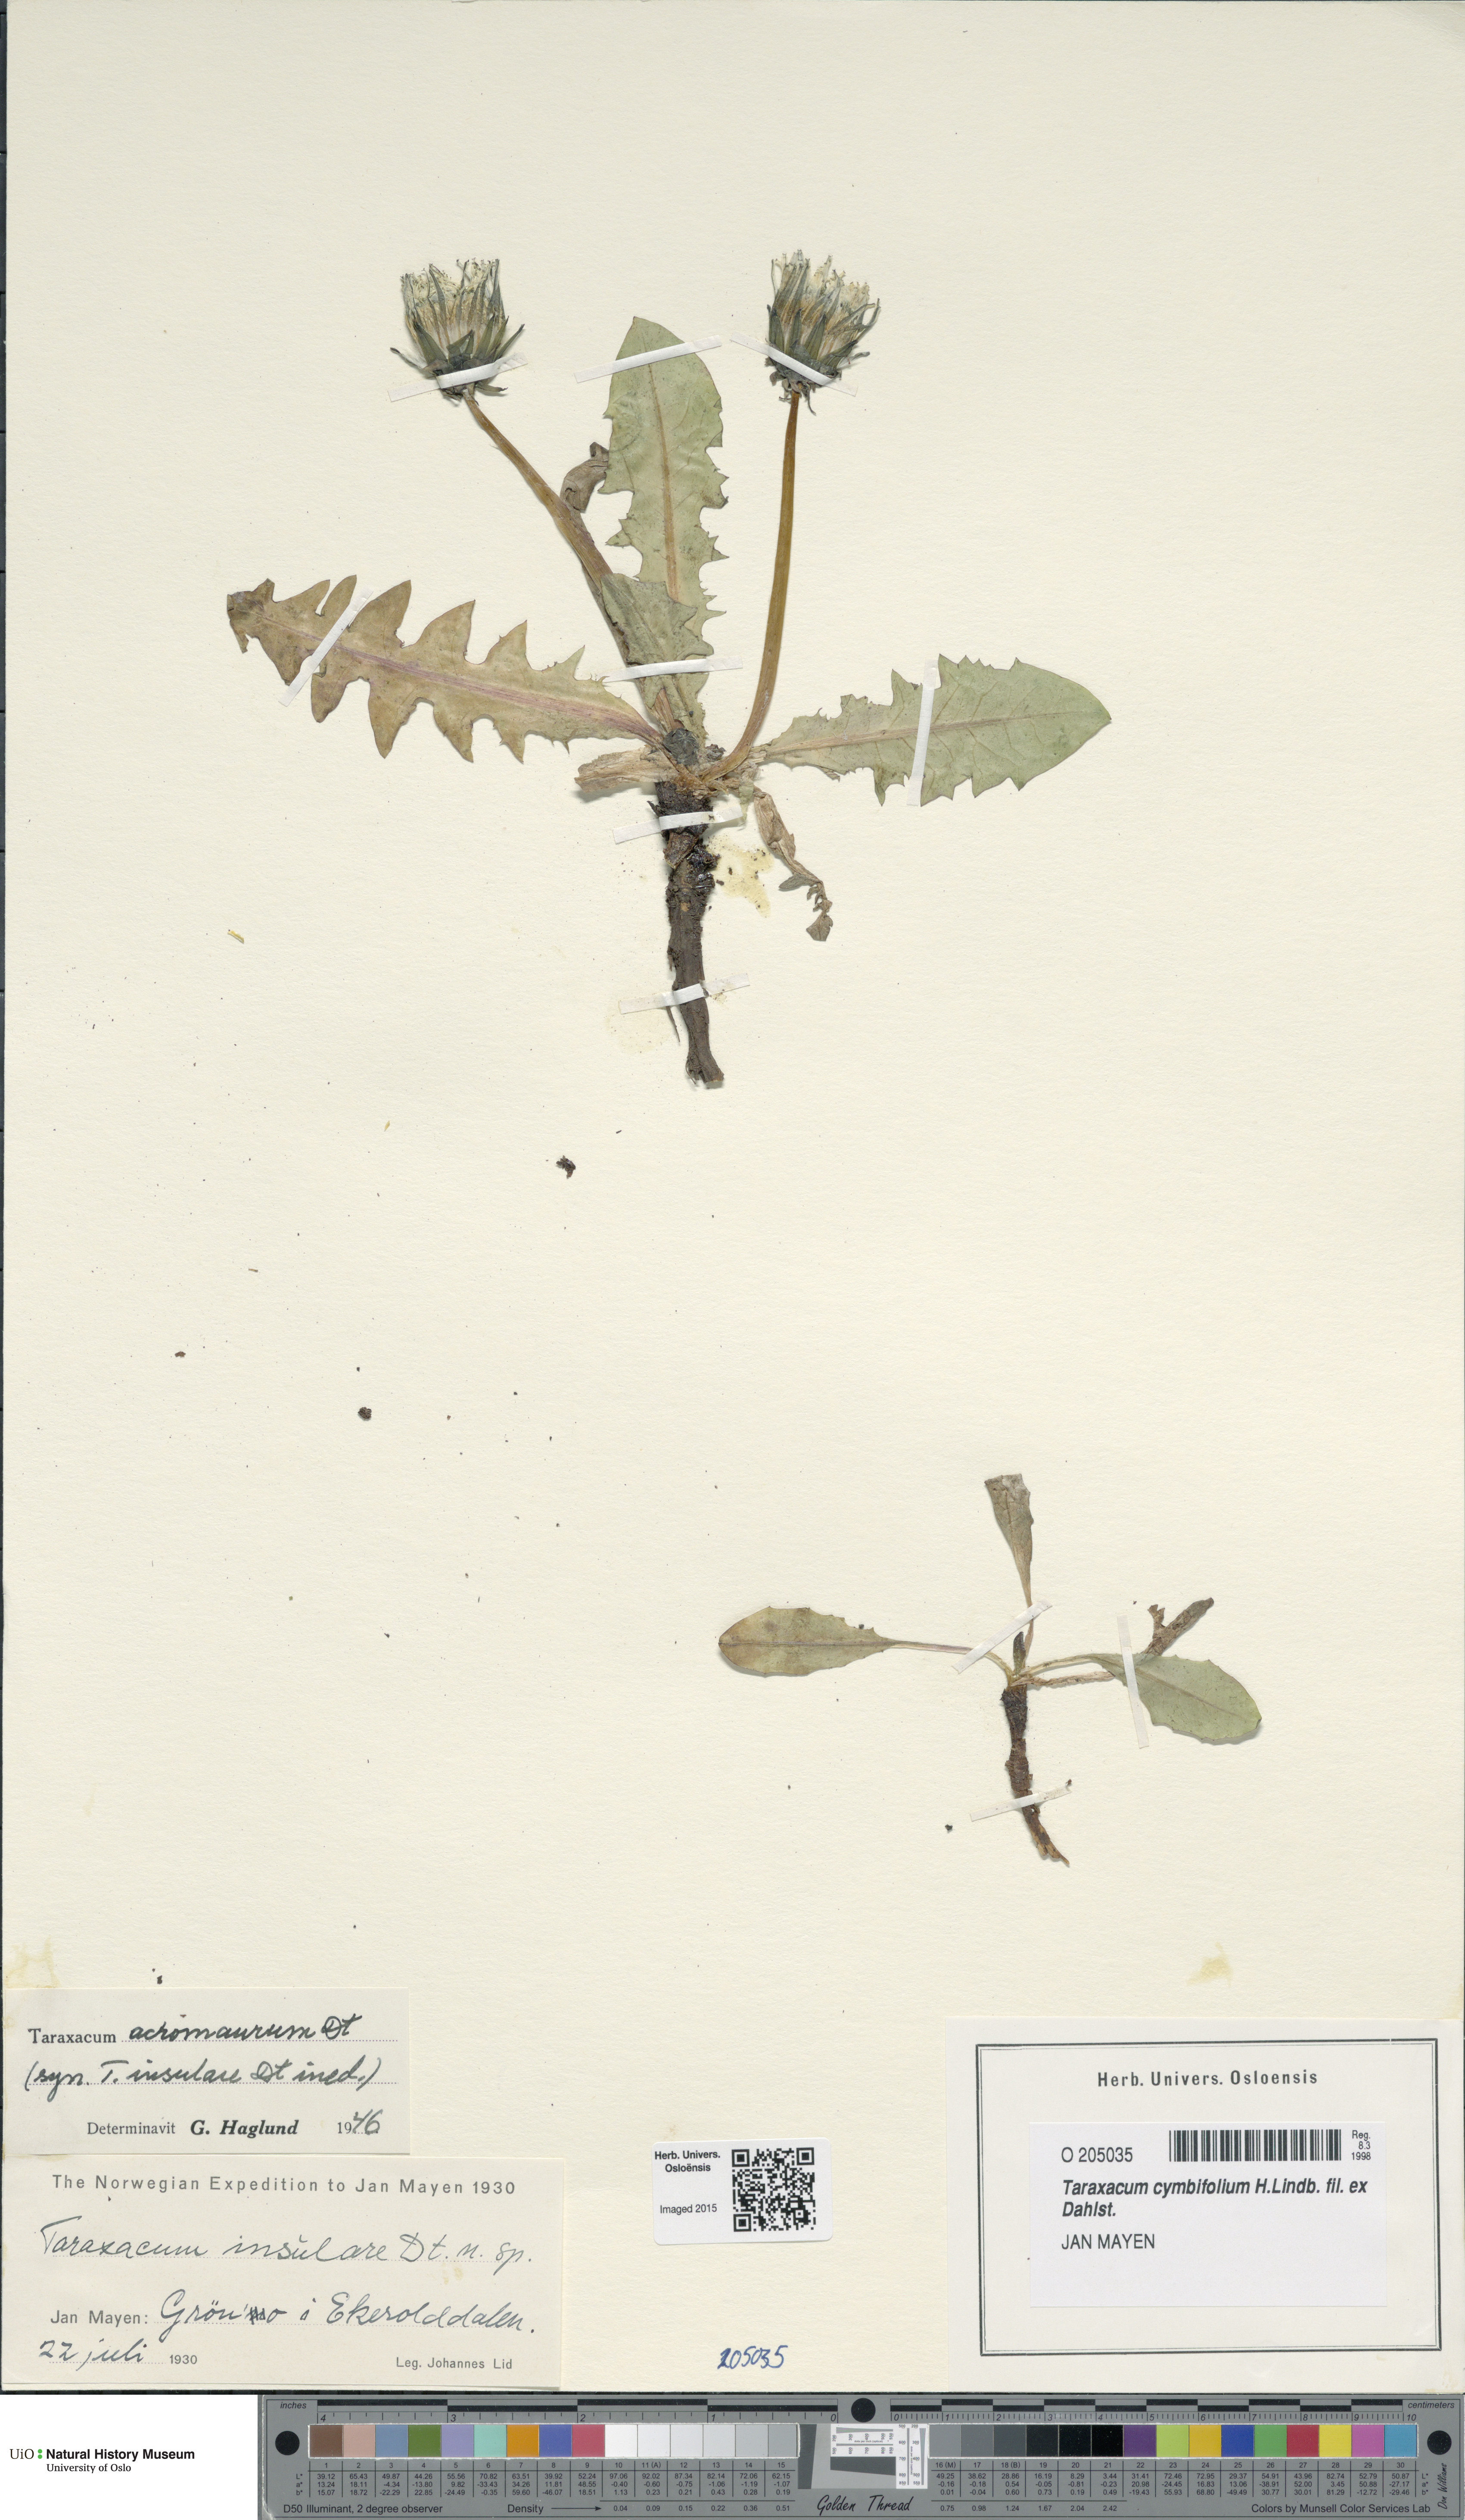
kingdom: Plantae
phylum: Tracheophyta
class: Magnoliopsida
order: Asterales
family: Asteraceae
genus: Taraxacum
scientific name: Taraxacum cymbifolium
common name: Ben lawes dandelion
